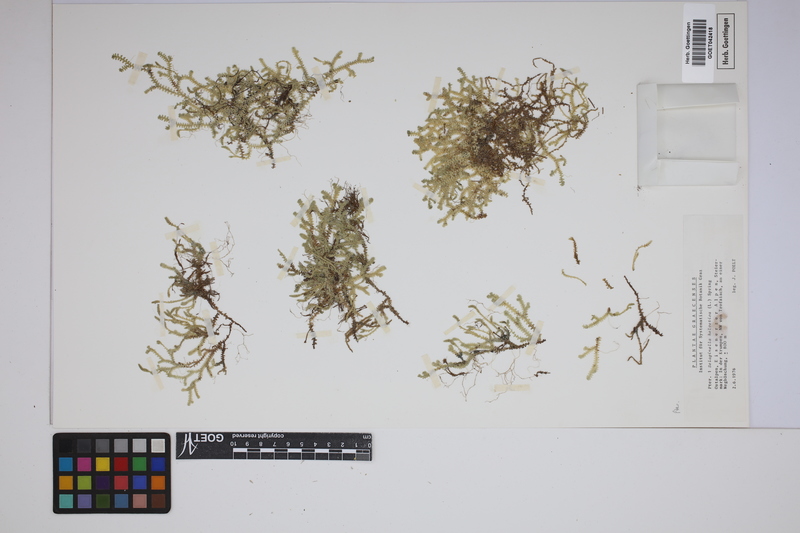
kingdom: Plantae
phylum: Tracheophyta
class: Lycopodiopsida
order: Selaginellales
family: Selaginellaceae
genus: Selaginella
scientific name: Selaginella helvetica
